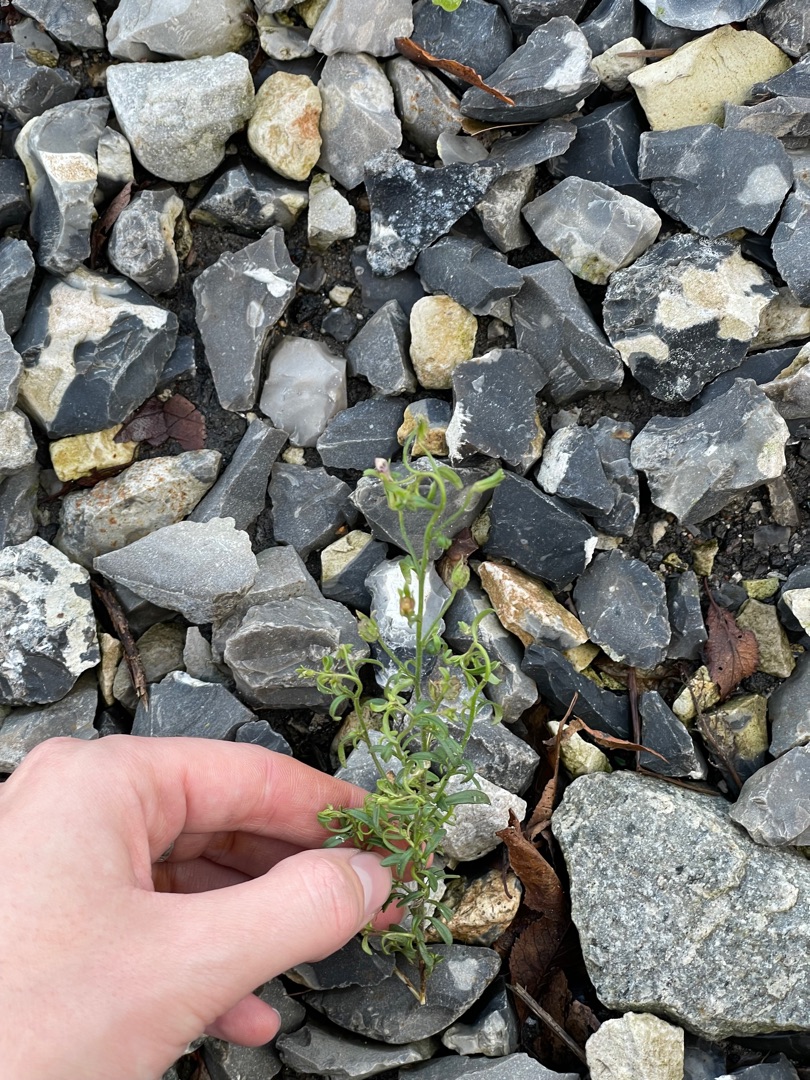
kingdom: Plantae
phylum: Tracheophyta
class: Magnoliopsida
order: Lamiales
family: Plantaginaceae
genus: Chaenorhinum
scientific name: Chaenorhinum minus
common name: Liden torskemund
